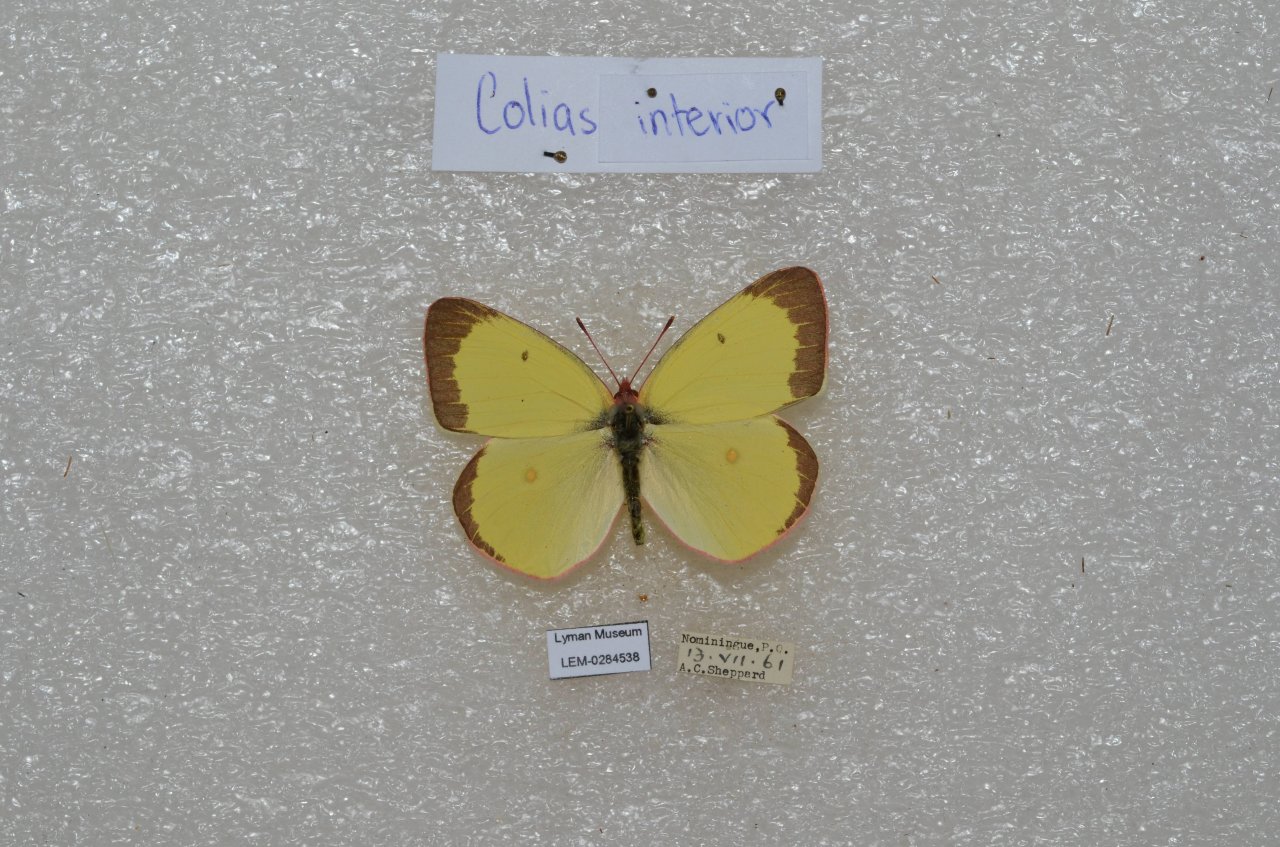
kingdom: Animalia
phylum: Arthropoda
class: Insecta
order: Lepidoptera
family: Pieridae
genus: Colias
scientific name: Colias interior
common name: Pink-edged Sulphur
